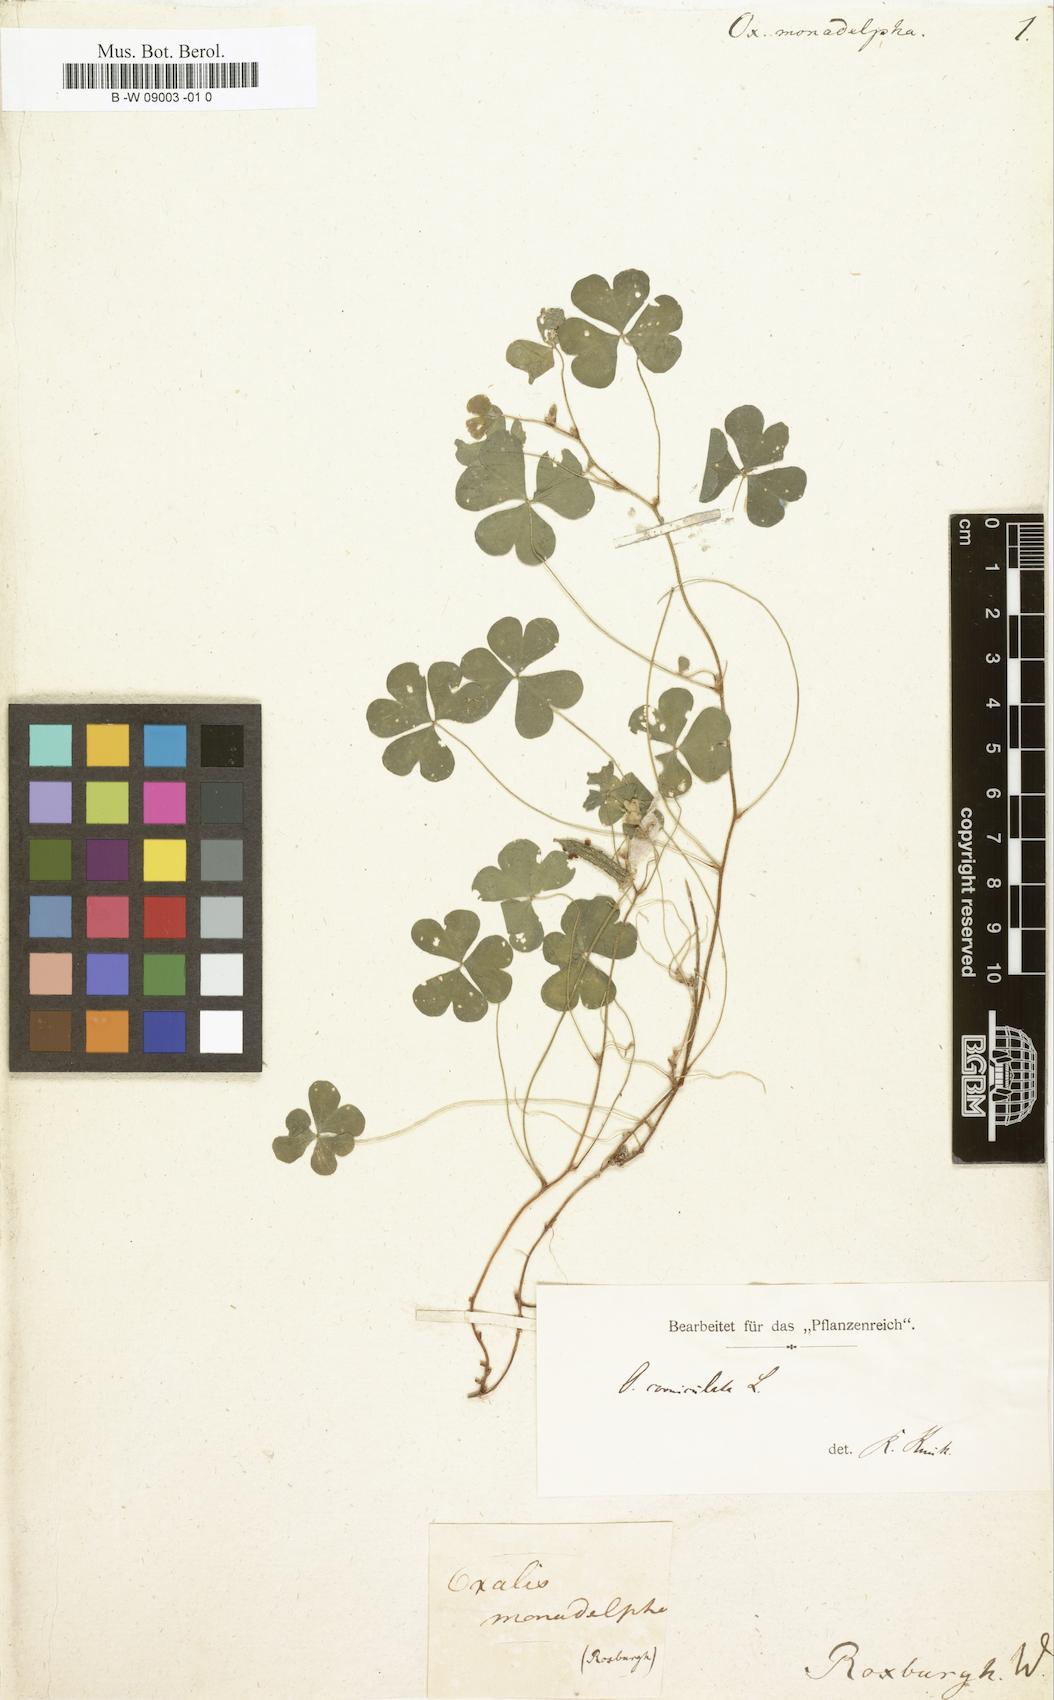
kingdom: Plantae
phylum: Tracheophyta
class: Magnoliopsida
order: Oxalidales
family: Oxalidaceae
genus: Oxalis
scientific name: Oxalis corniculata
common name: Procumbent yellow-sorrel
